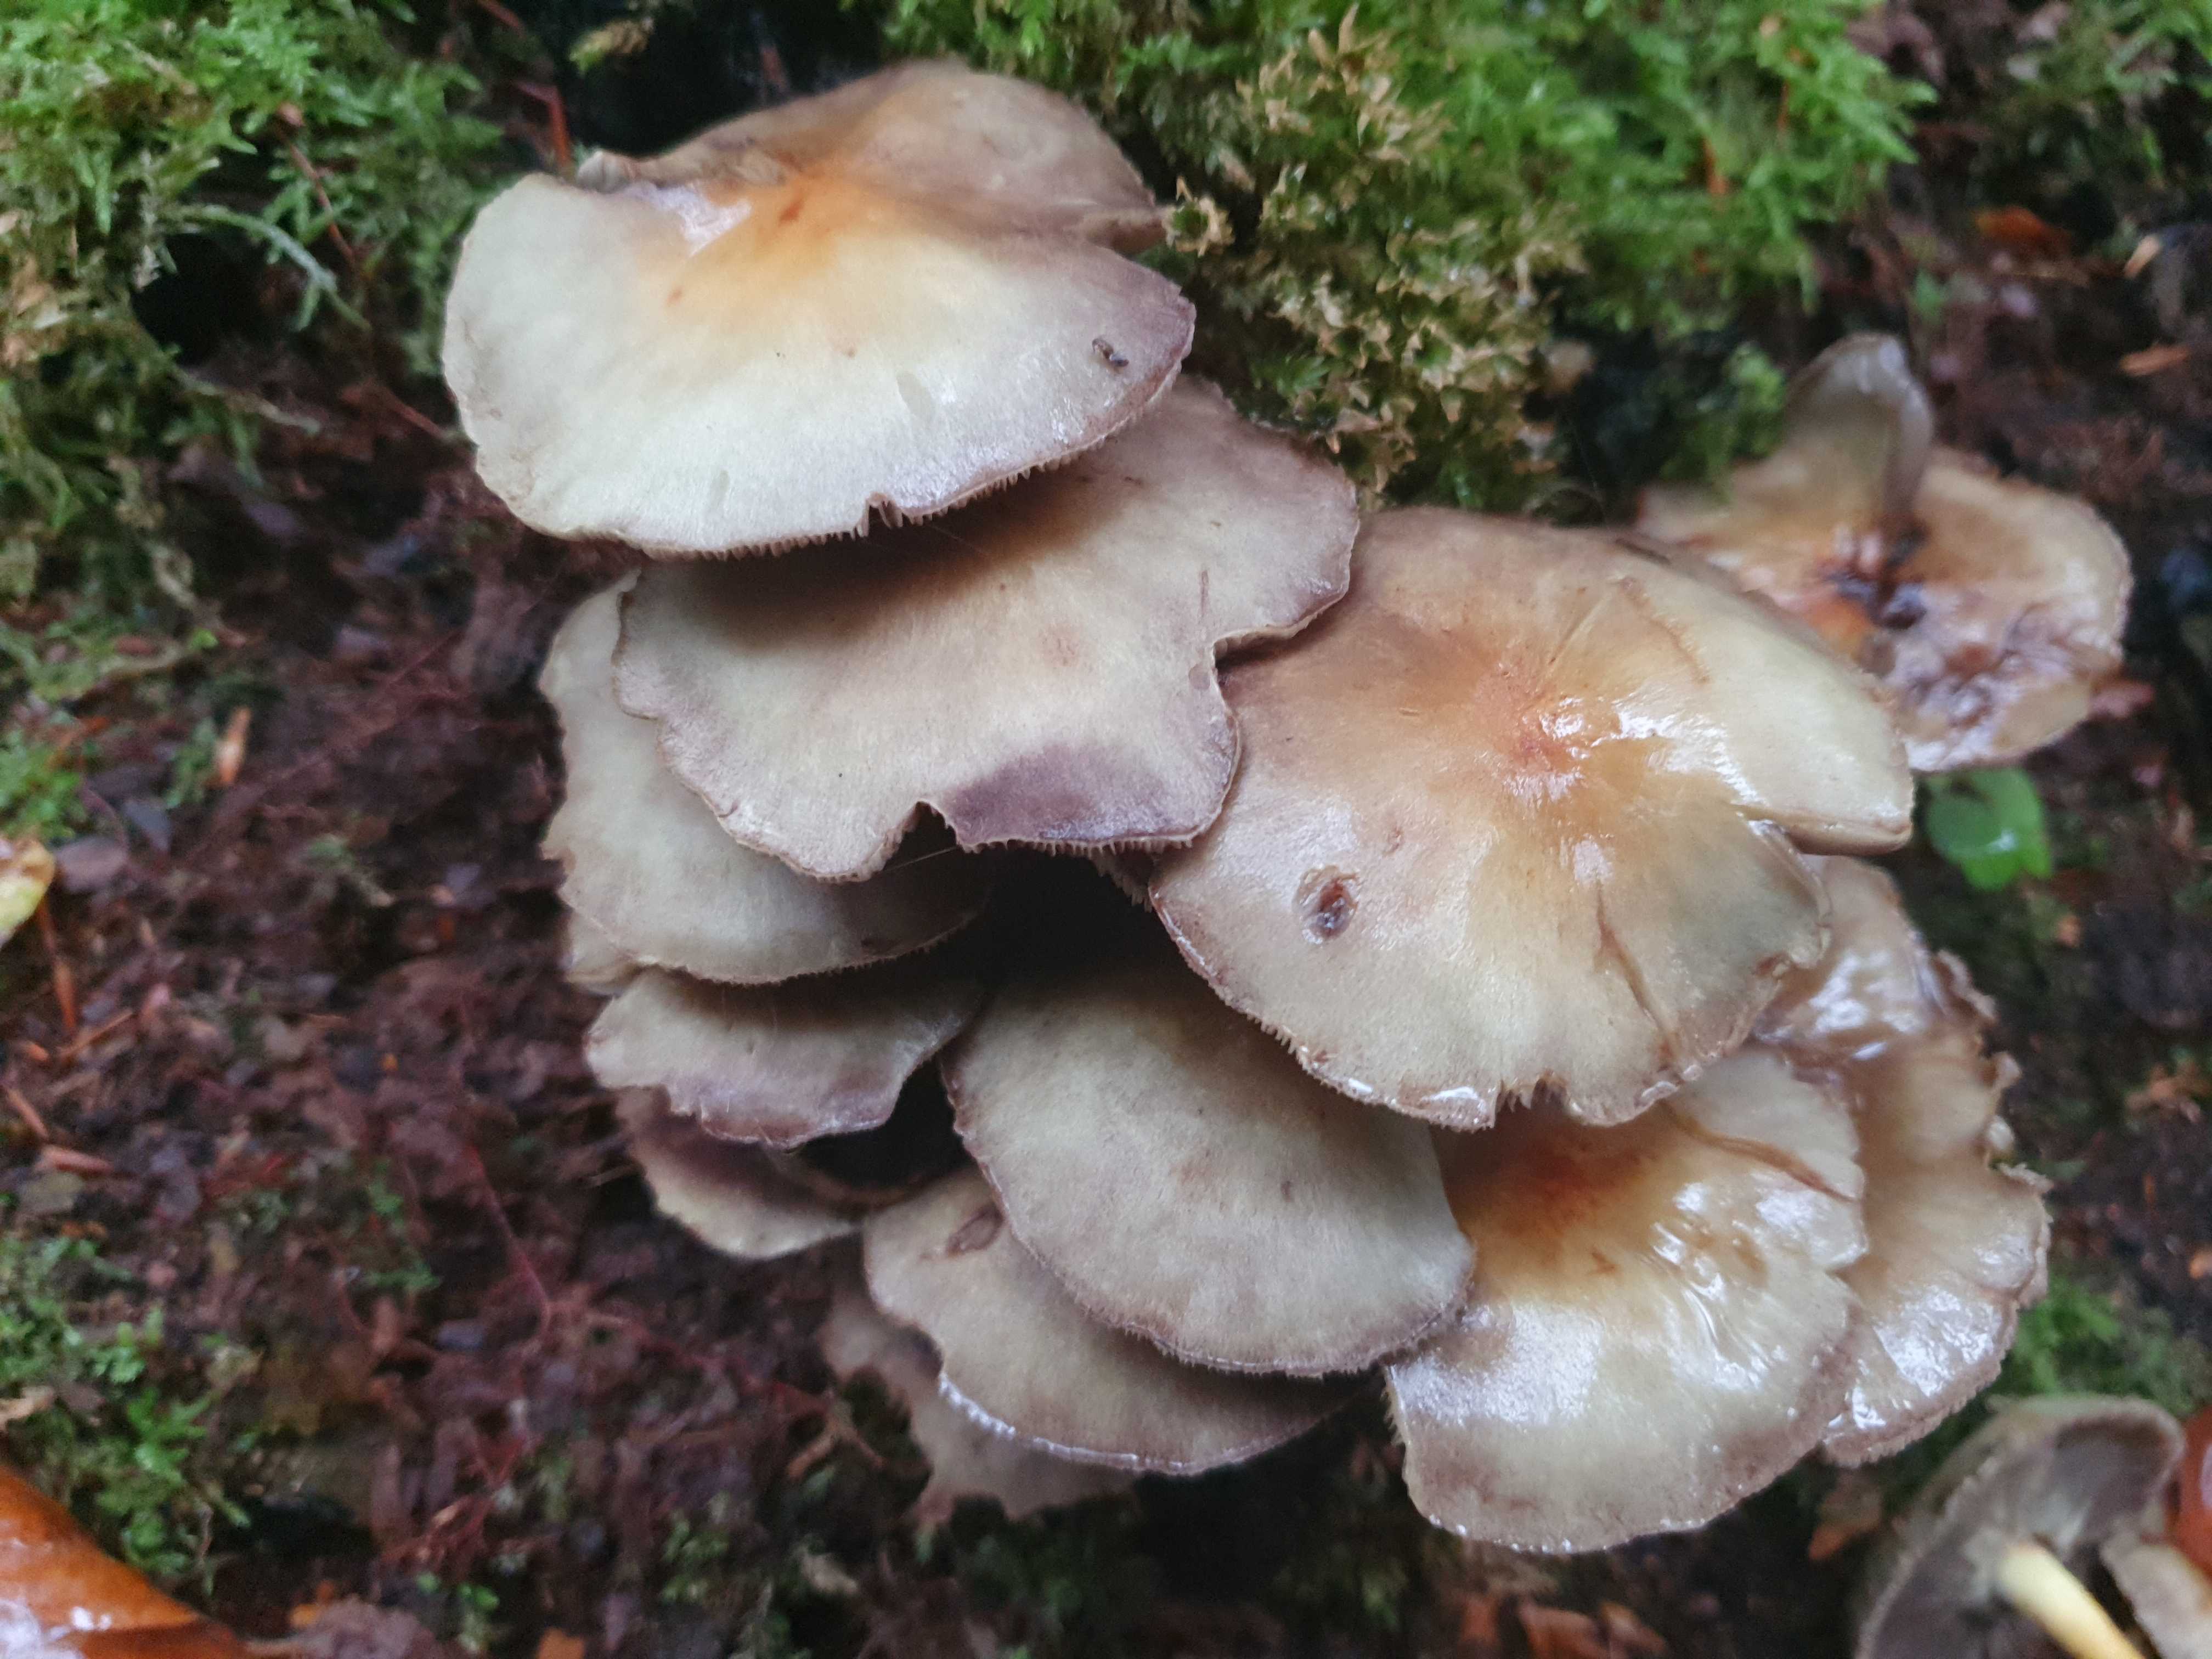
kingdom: Fungi
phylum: Basidiomycota
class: Agaricomycetes
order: Agaricales
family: Strophariaceae
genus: Hypholoma
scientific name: Hypholoma fasciculare
